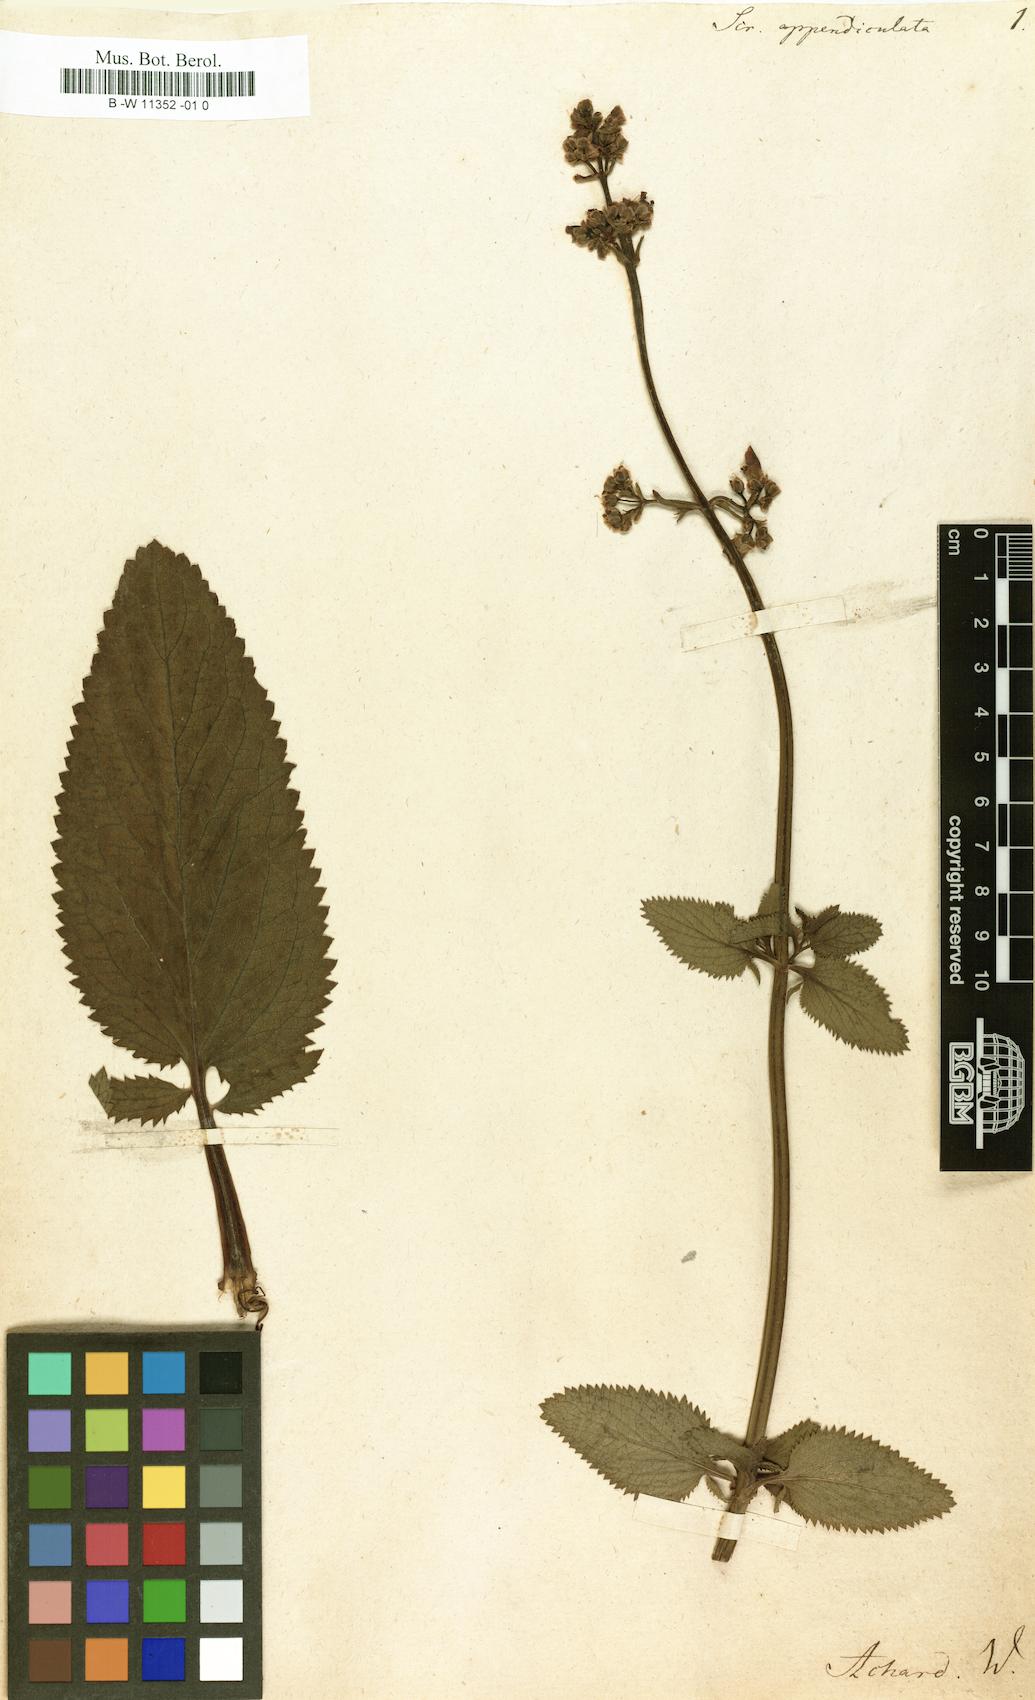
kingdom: Plantae
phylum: Tracheophyta
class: Magnoliopsida
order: Lamiales
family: Scrophulariaceae
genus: Scrophularia
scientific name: Scrophularia
